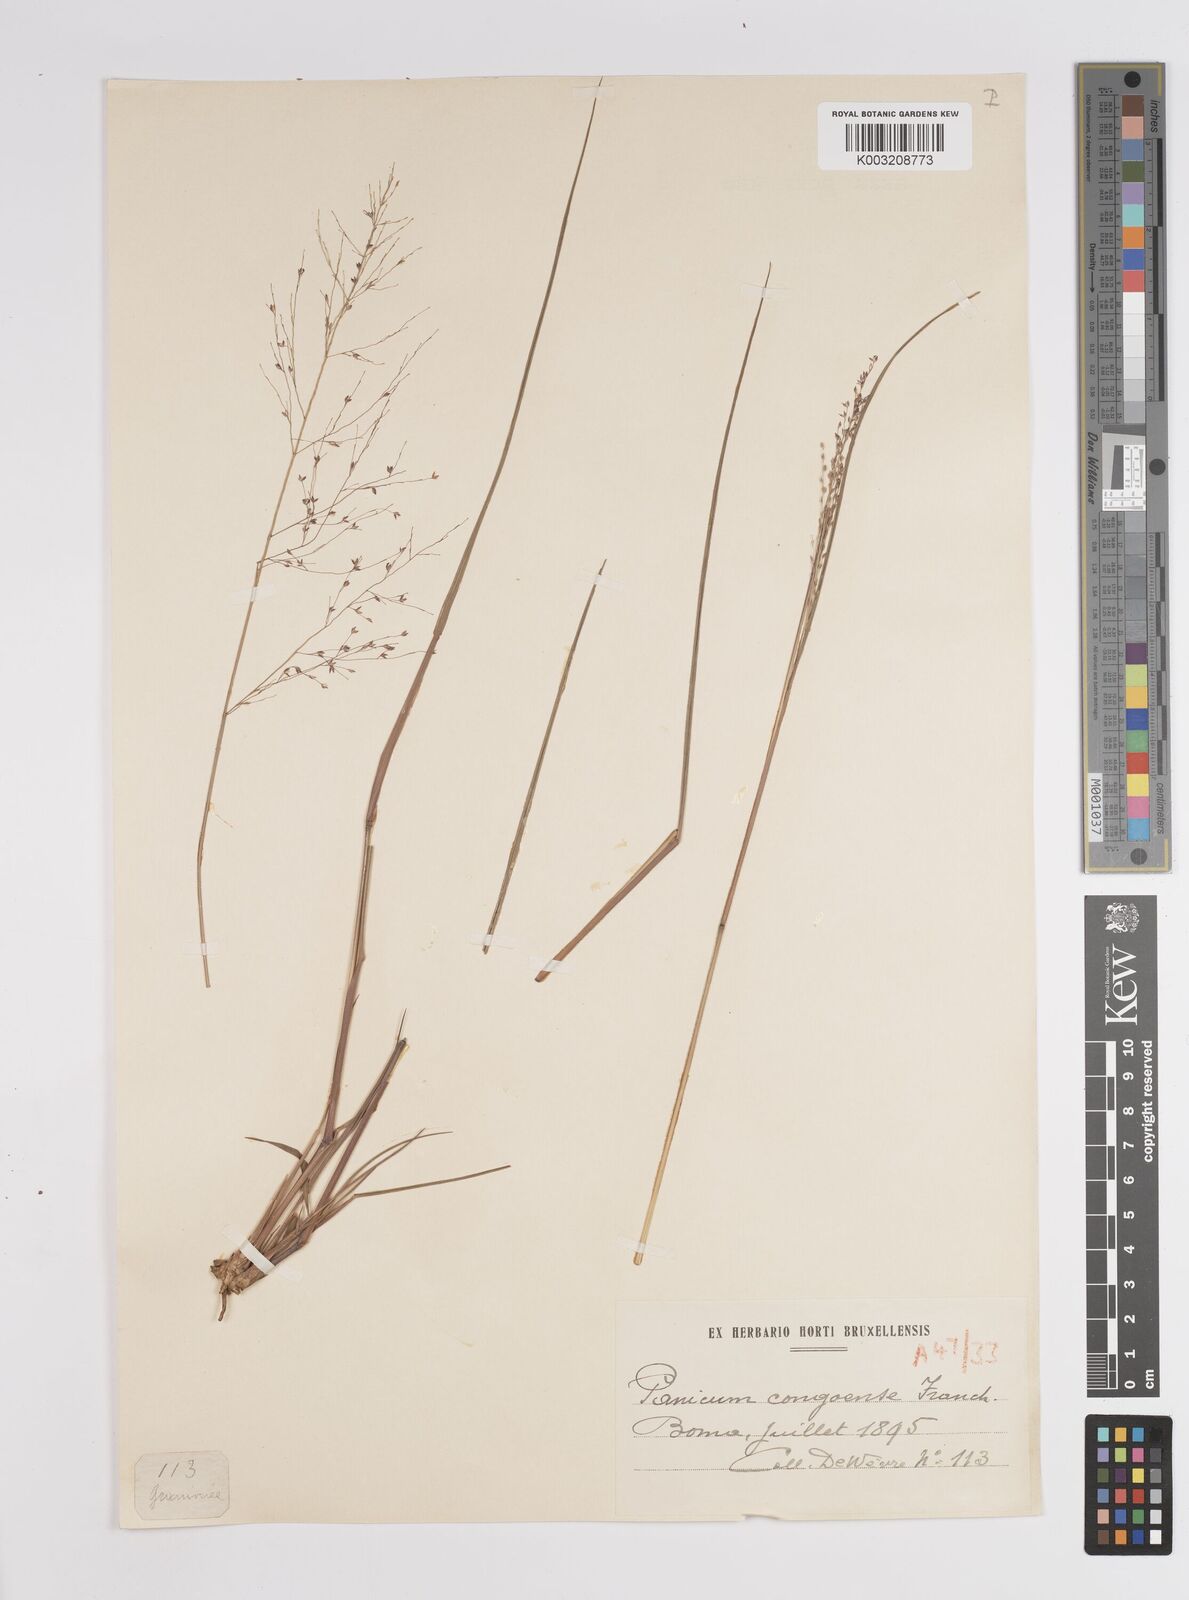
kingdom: Plantae
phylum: Tracheophyta
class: Liliopsida
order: Poales
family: Poaceae
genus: Panicum
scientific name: Panicum genuflexum
